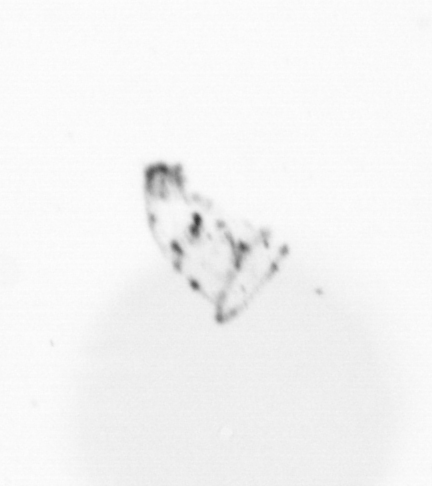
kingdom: Chromista
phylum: Ochrophyta
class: Bacillariophyceae
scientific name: Bacillariophyceae
